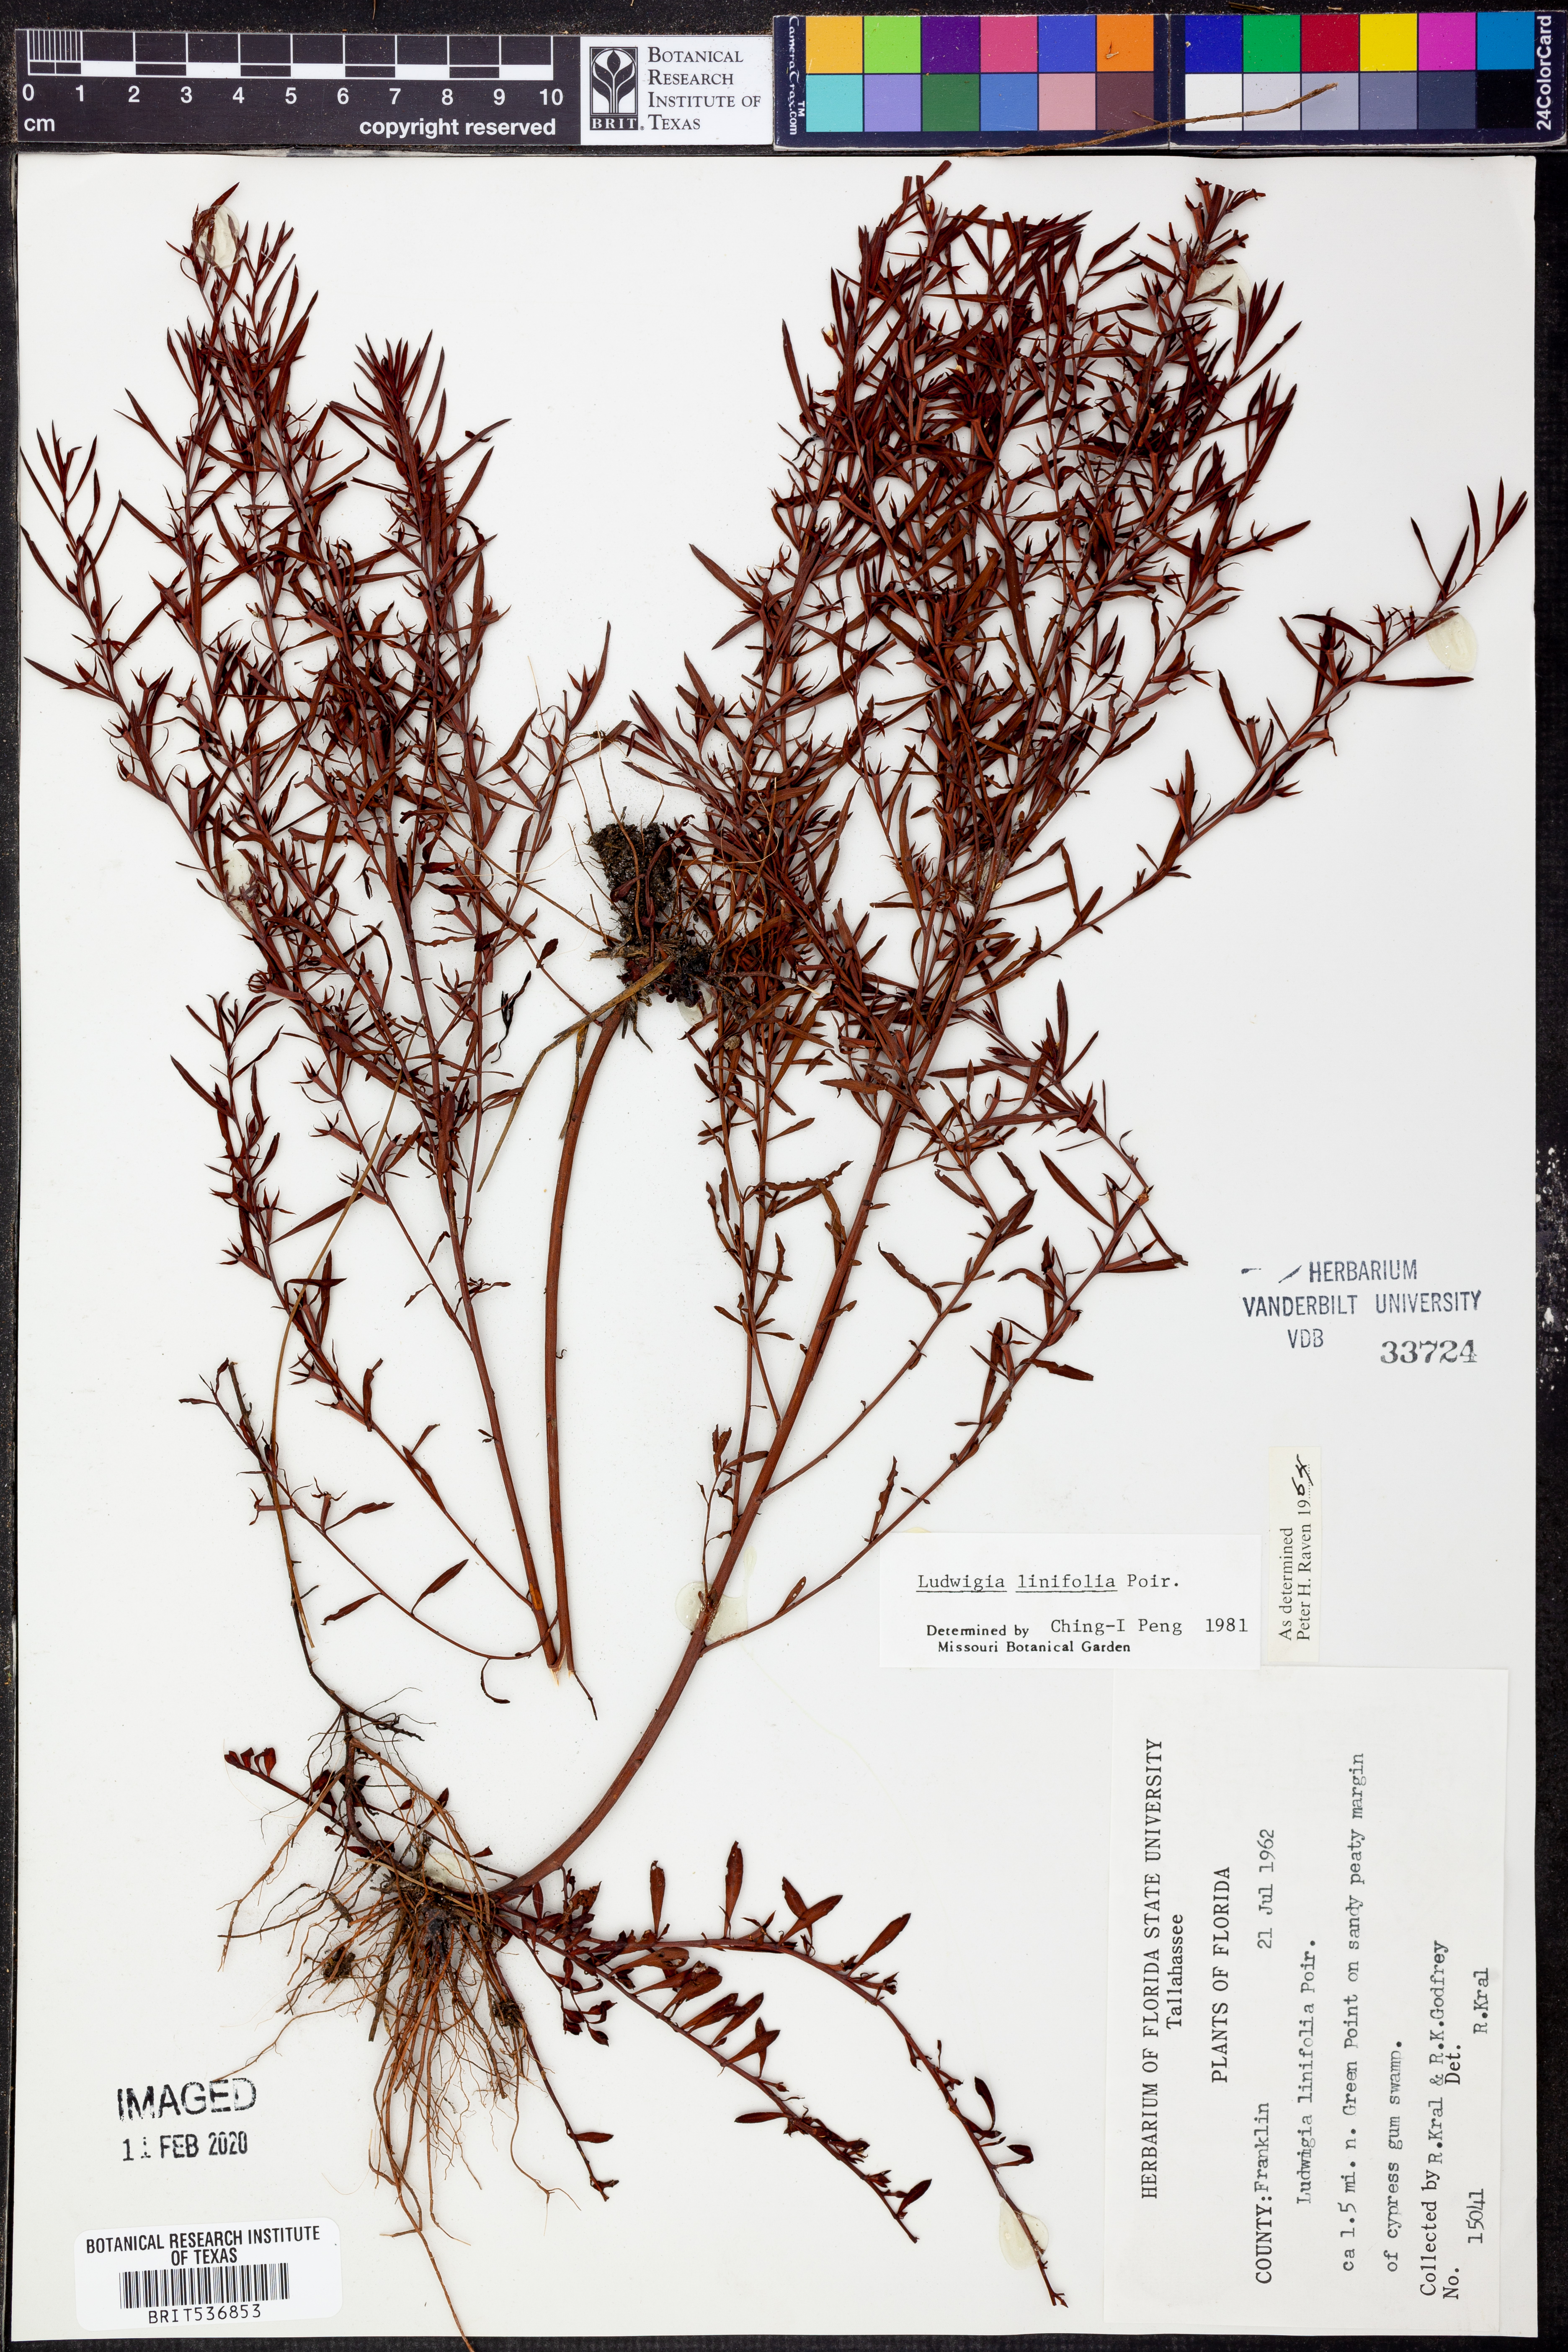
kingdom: Plantae
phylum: Tracheophyta
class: Magnoliopsida
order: Myrtales
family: Onagraceae
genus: Ludwigia
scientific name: Ludwigia linifolia
